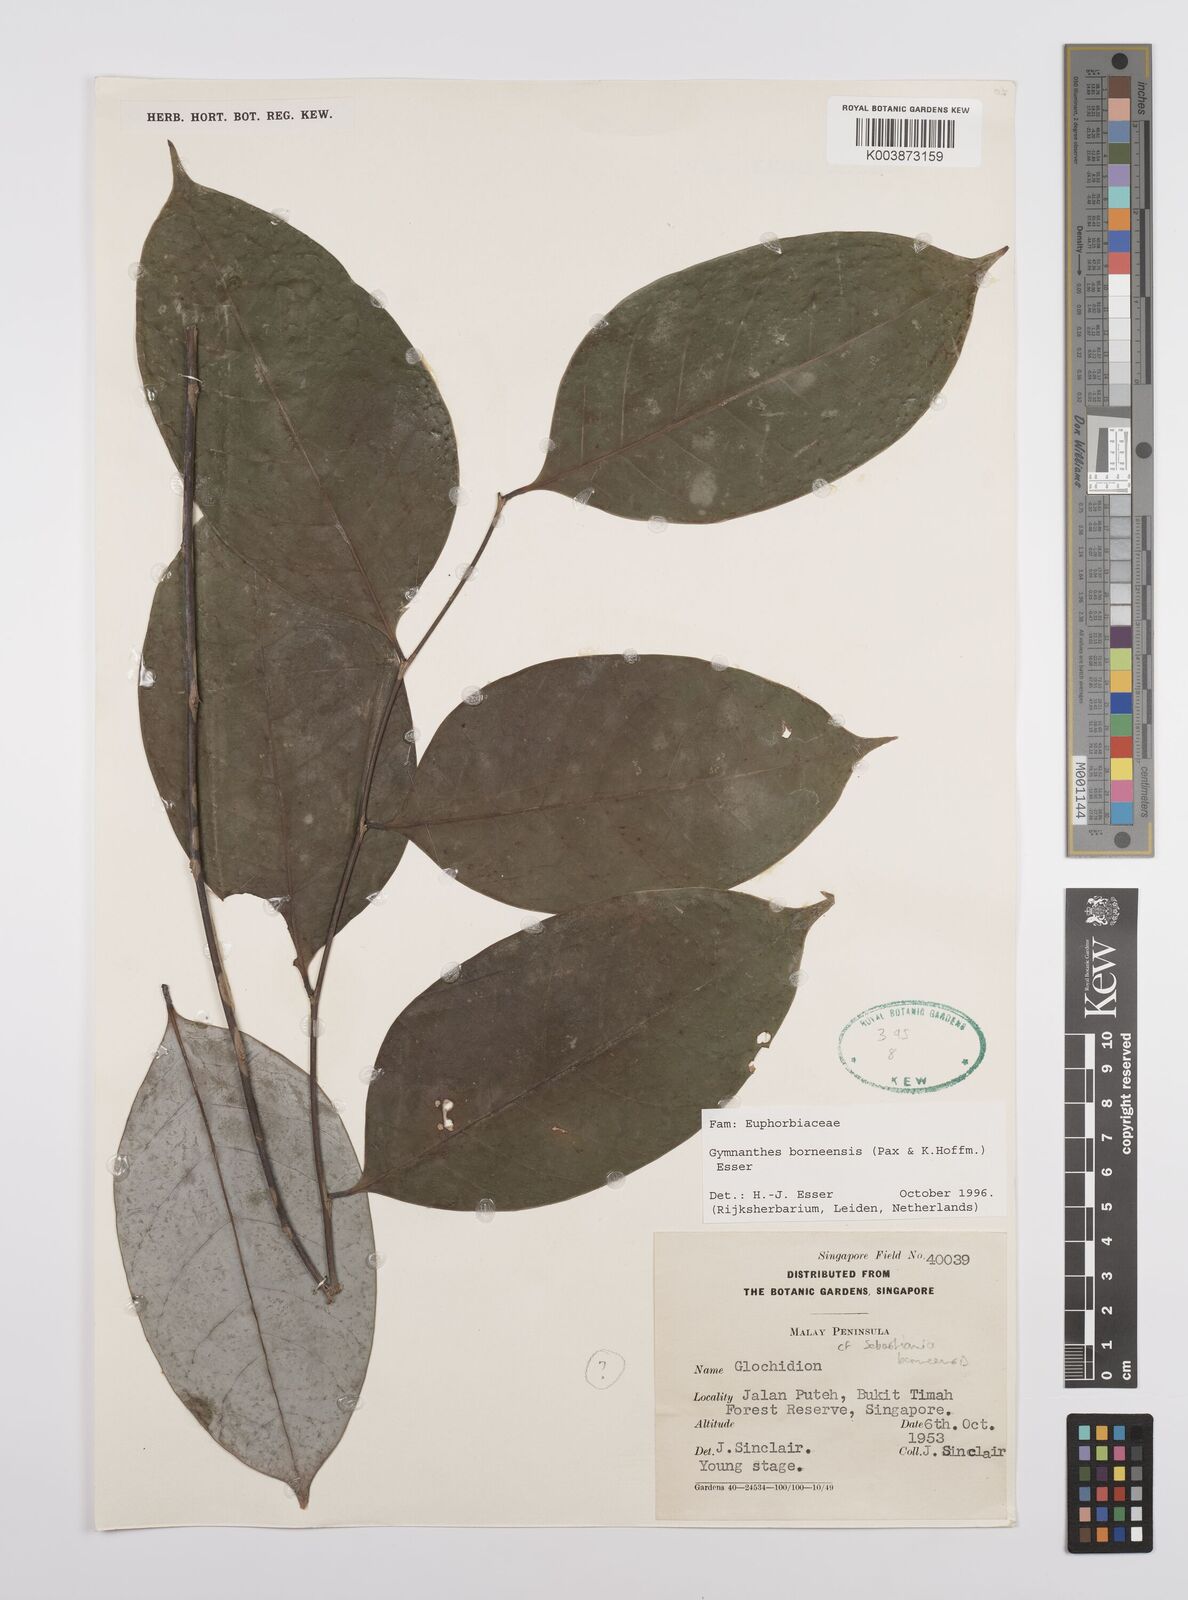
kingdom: Plantae
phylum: Tracheophyta
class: Magnoliopsida
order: Malpighiales
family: Euphorbiaceae
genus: Gymnanthes
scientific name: Gymnanthes borneensis
